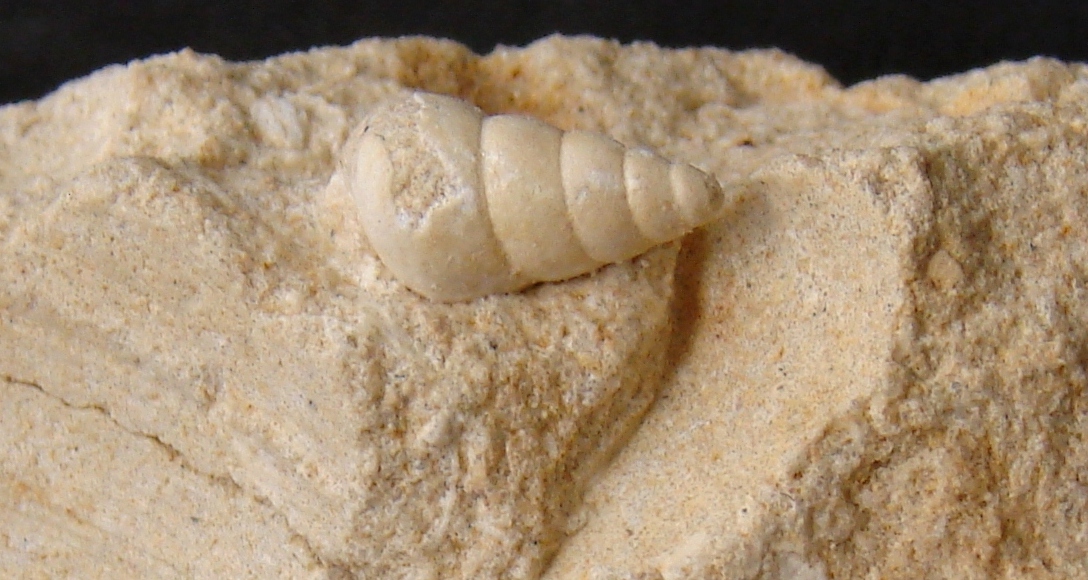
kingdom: Animalia
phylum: Mollusca
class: Gastropoda
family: Coelostylinidae
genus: Coelostylina
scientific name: Coelostylina Cerithium paludinare
